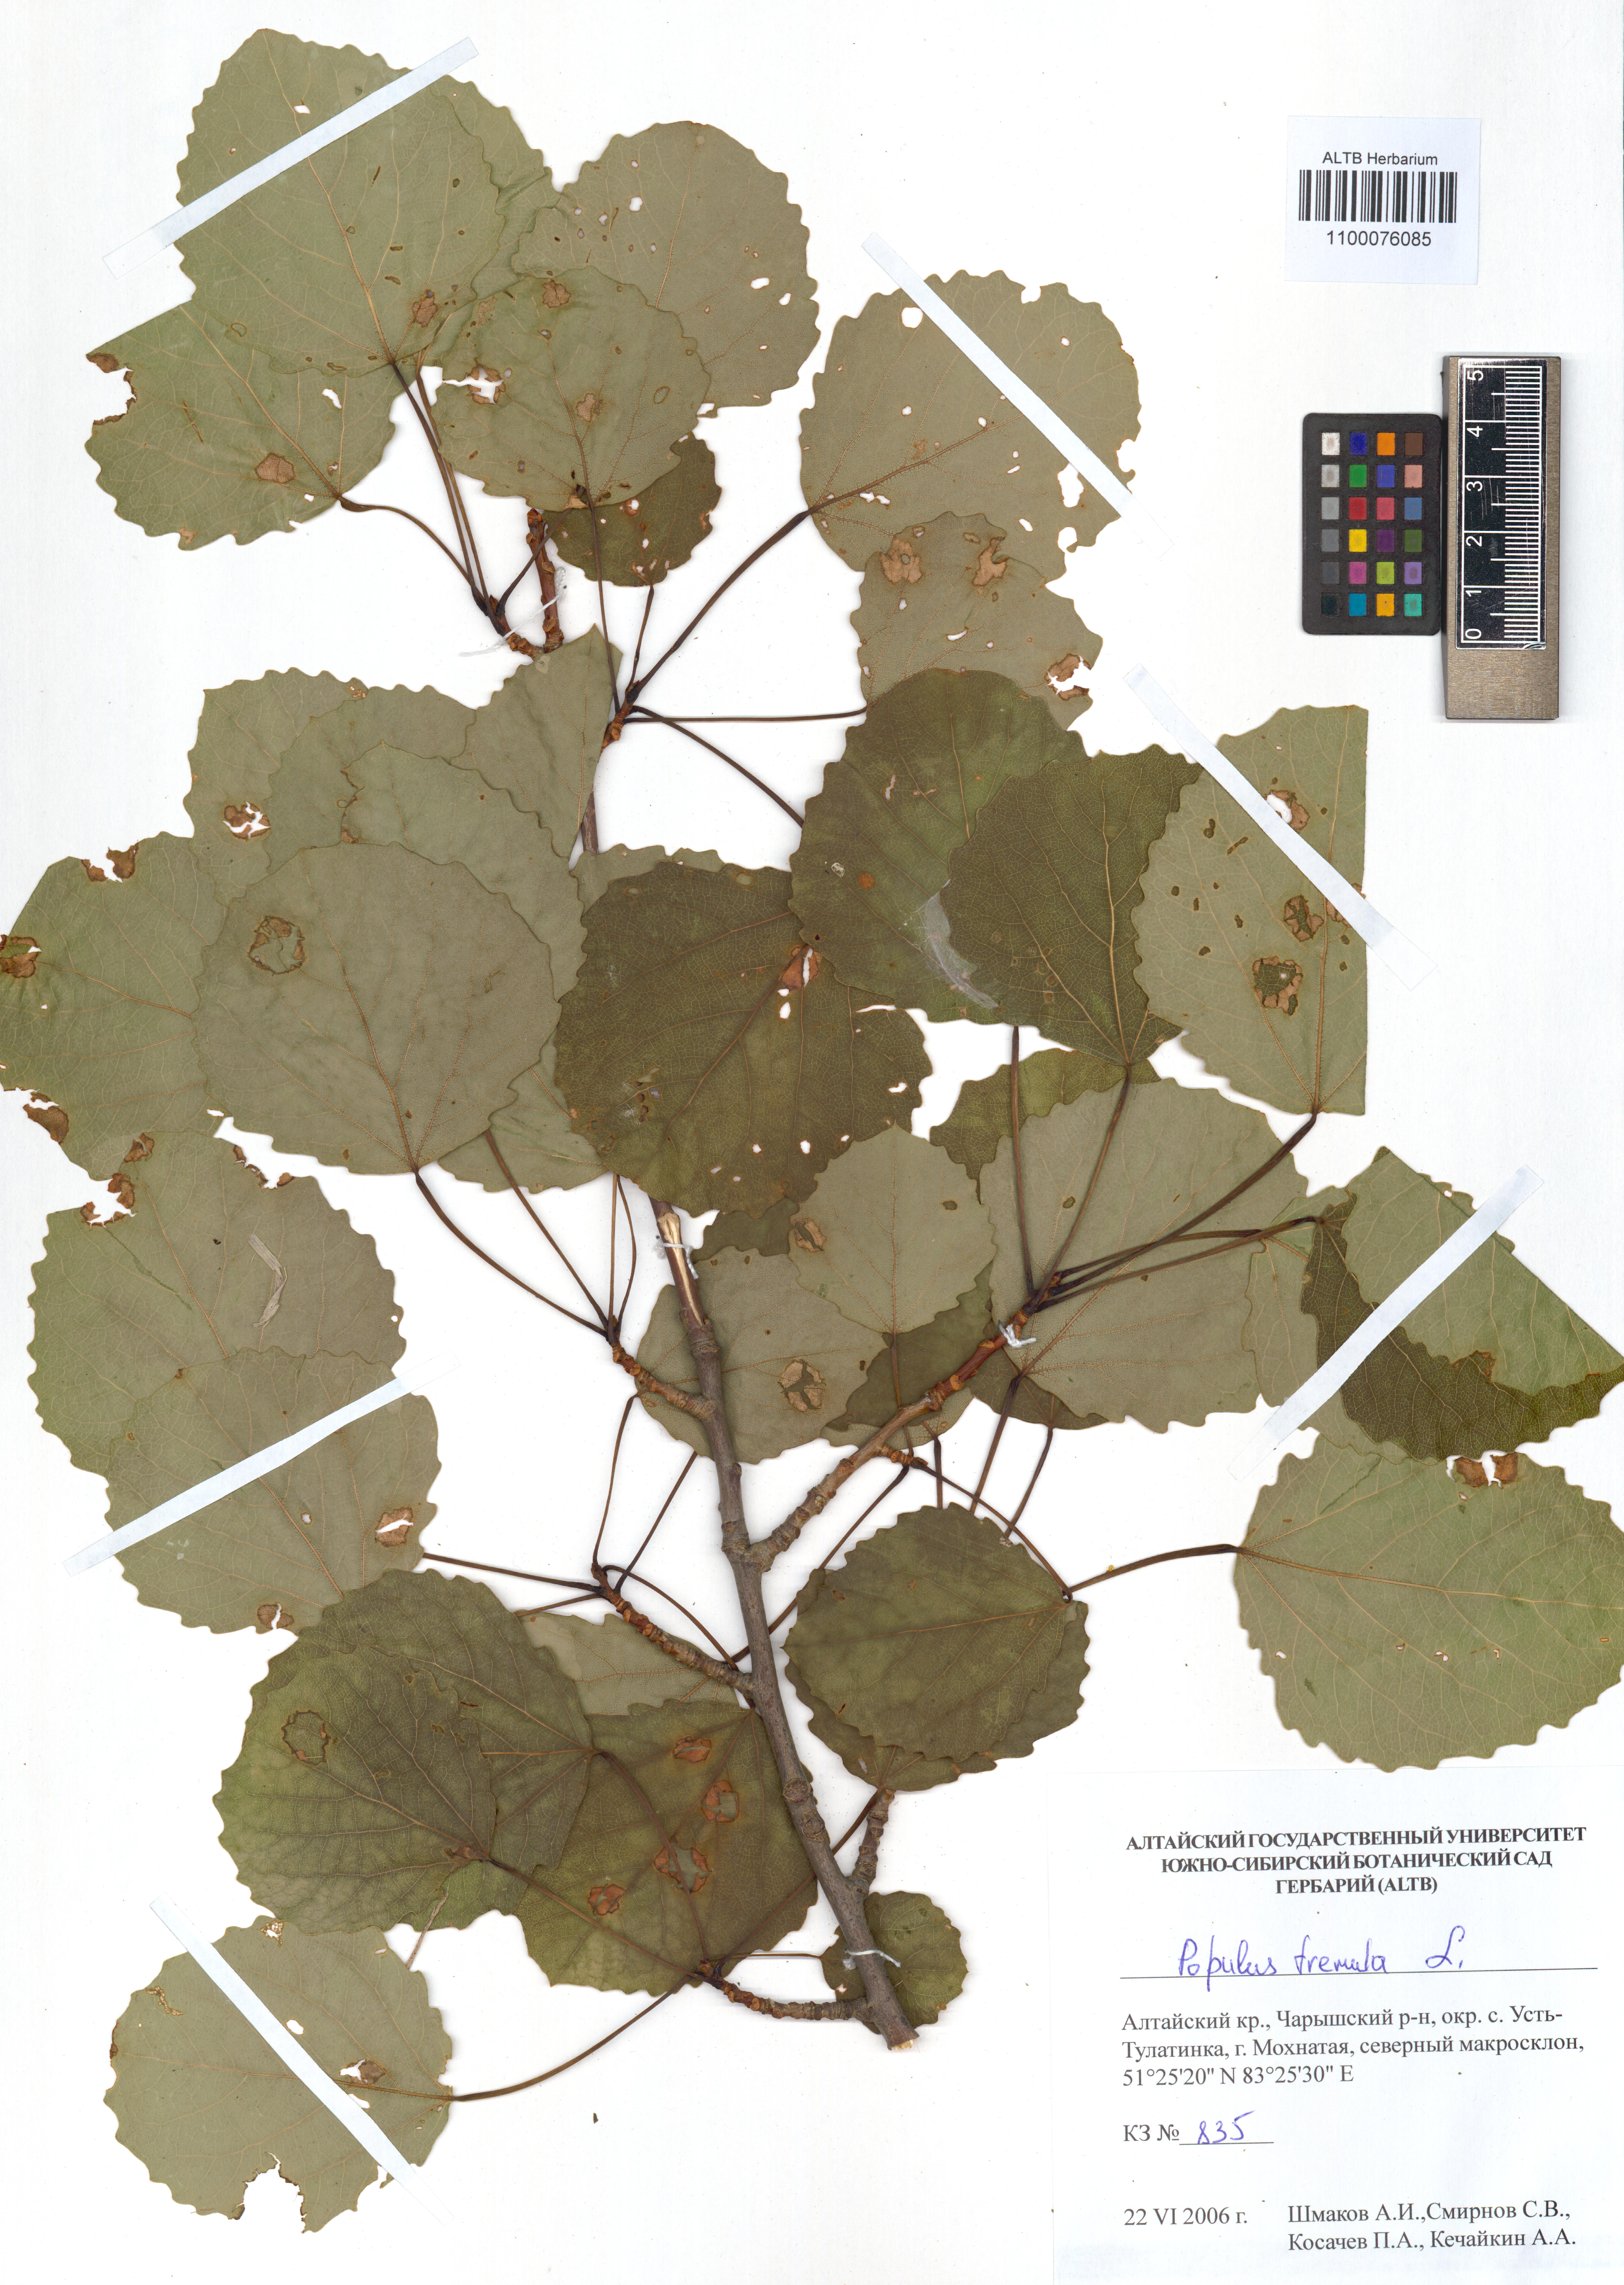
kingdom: Plantae
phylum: Tracheophyta
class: Magnoliopsida
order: Malpighiales
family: Salicaceae
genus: Populus
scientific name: Populus tremula
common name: European aspen
